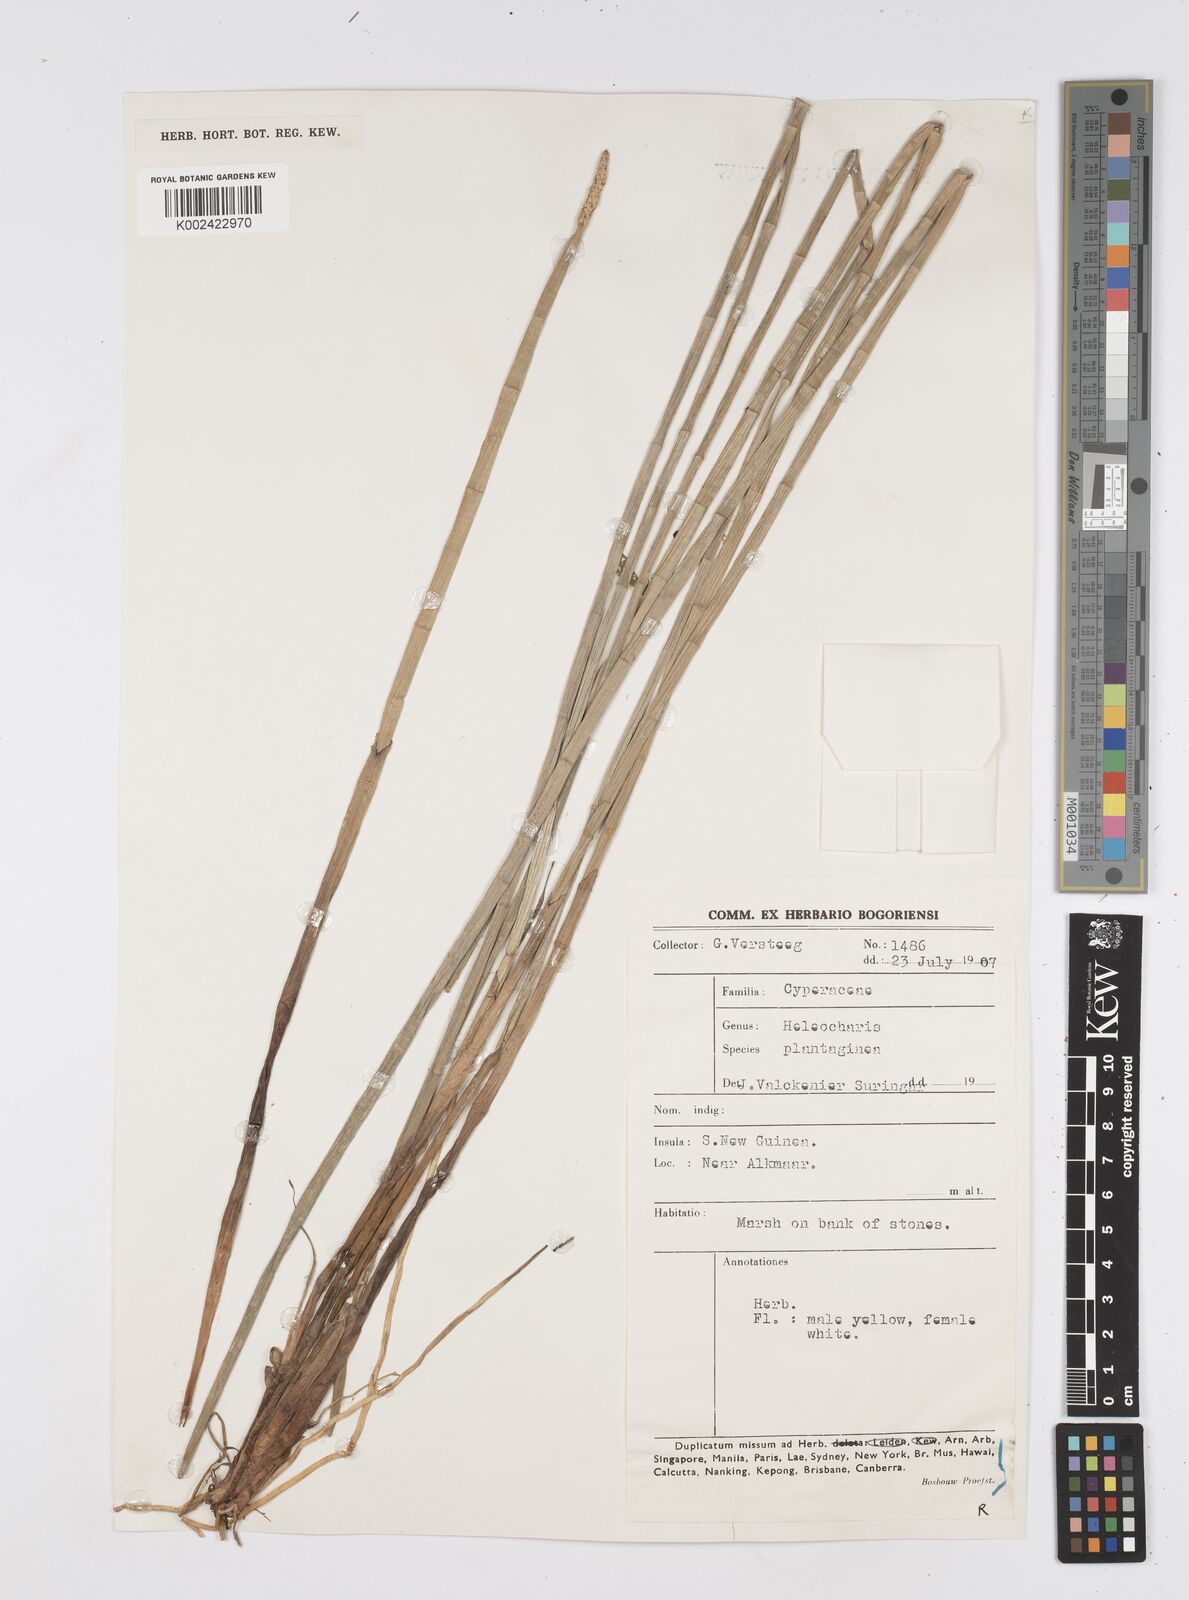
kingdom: Plantae
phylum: Tracheophyta
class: Liliopsida
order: Poales
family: Cyperaceae
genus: Eleocharis
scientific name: Eleocharis dulcis
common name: Chinese water chestnut
